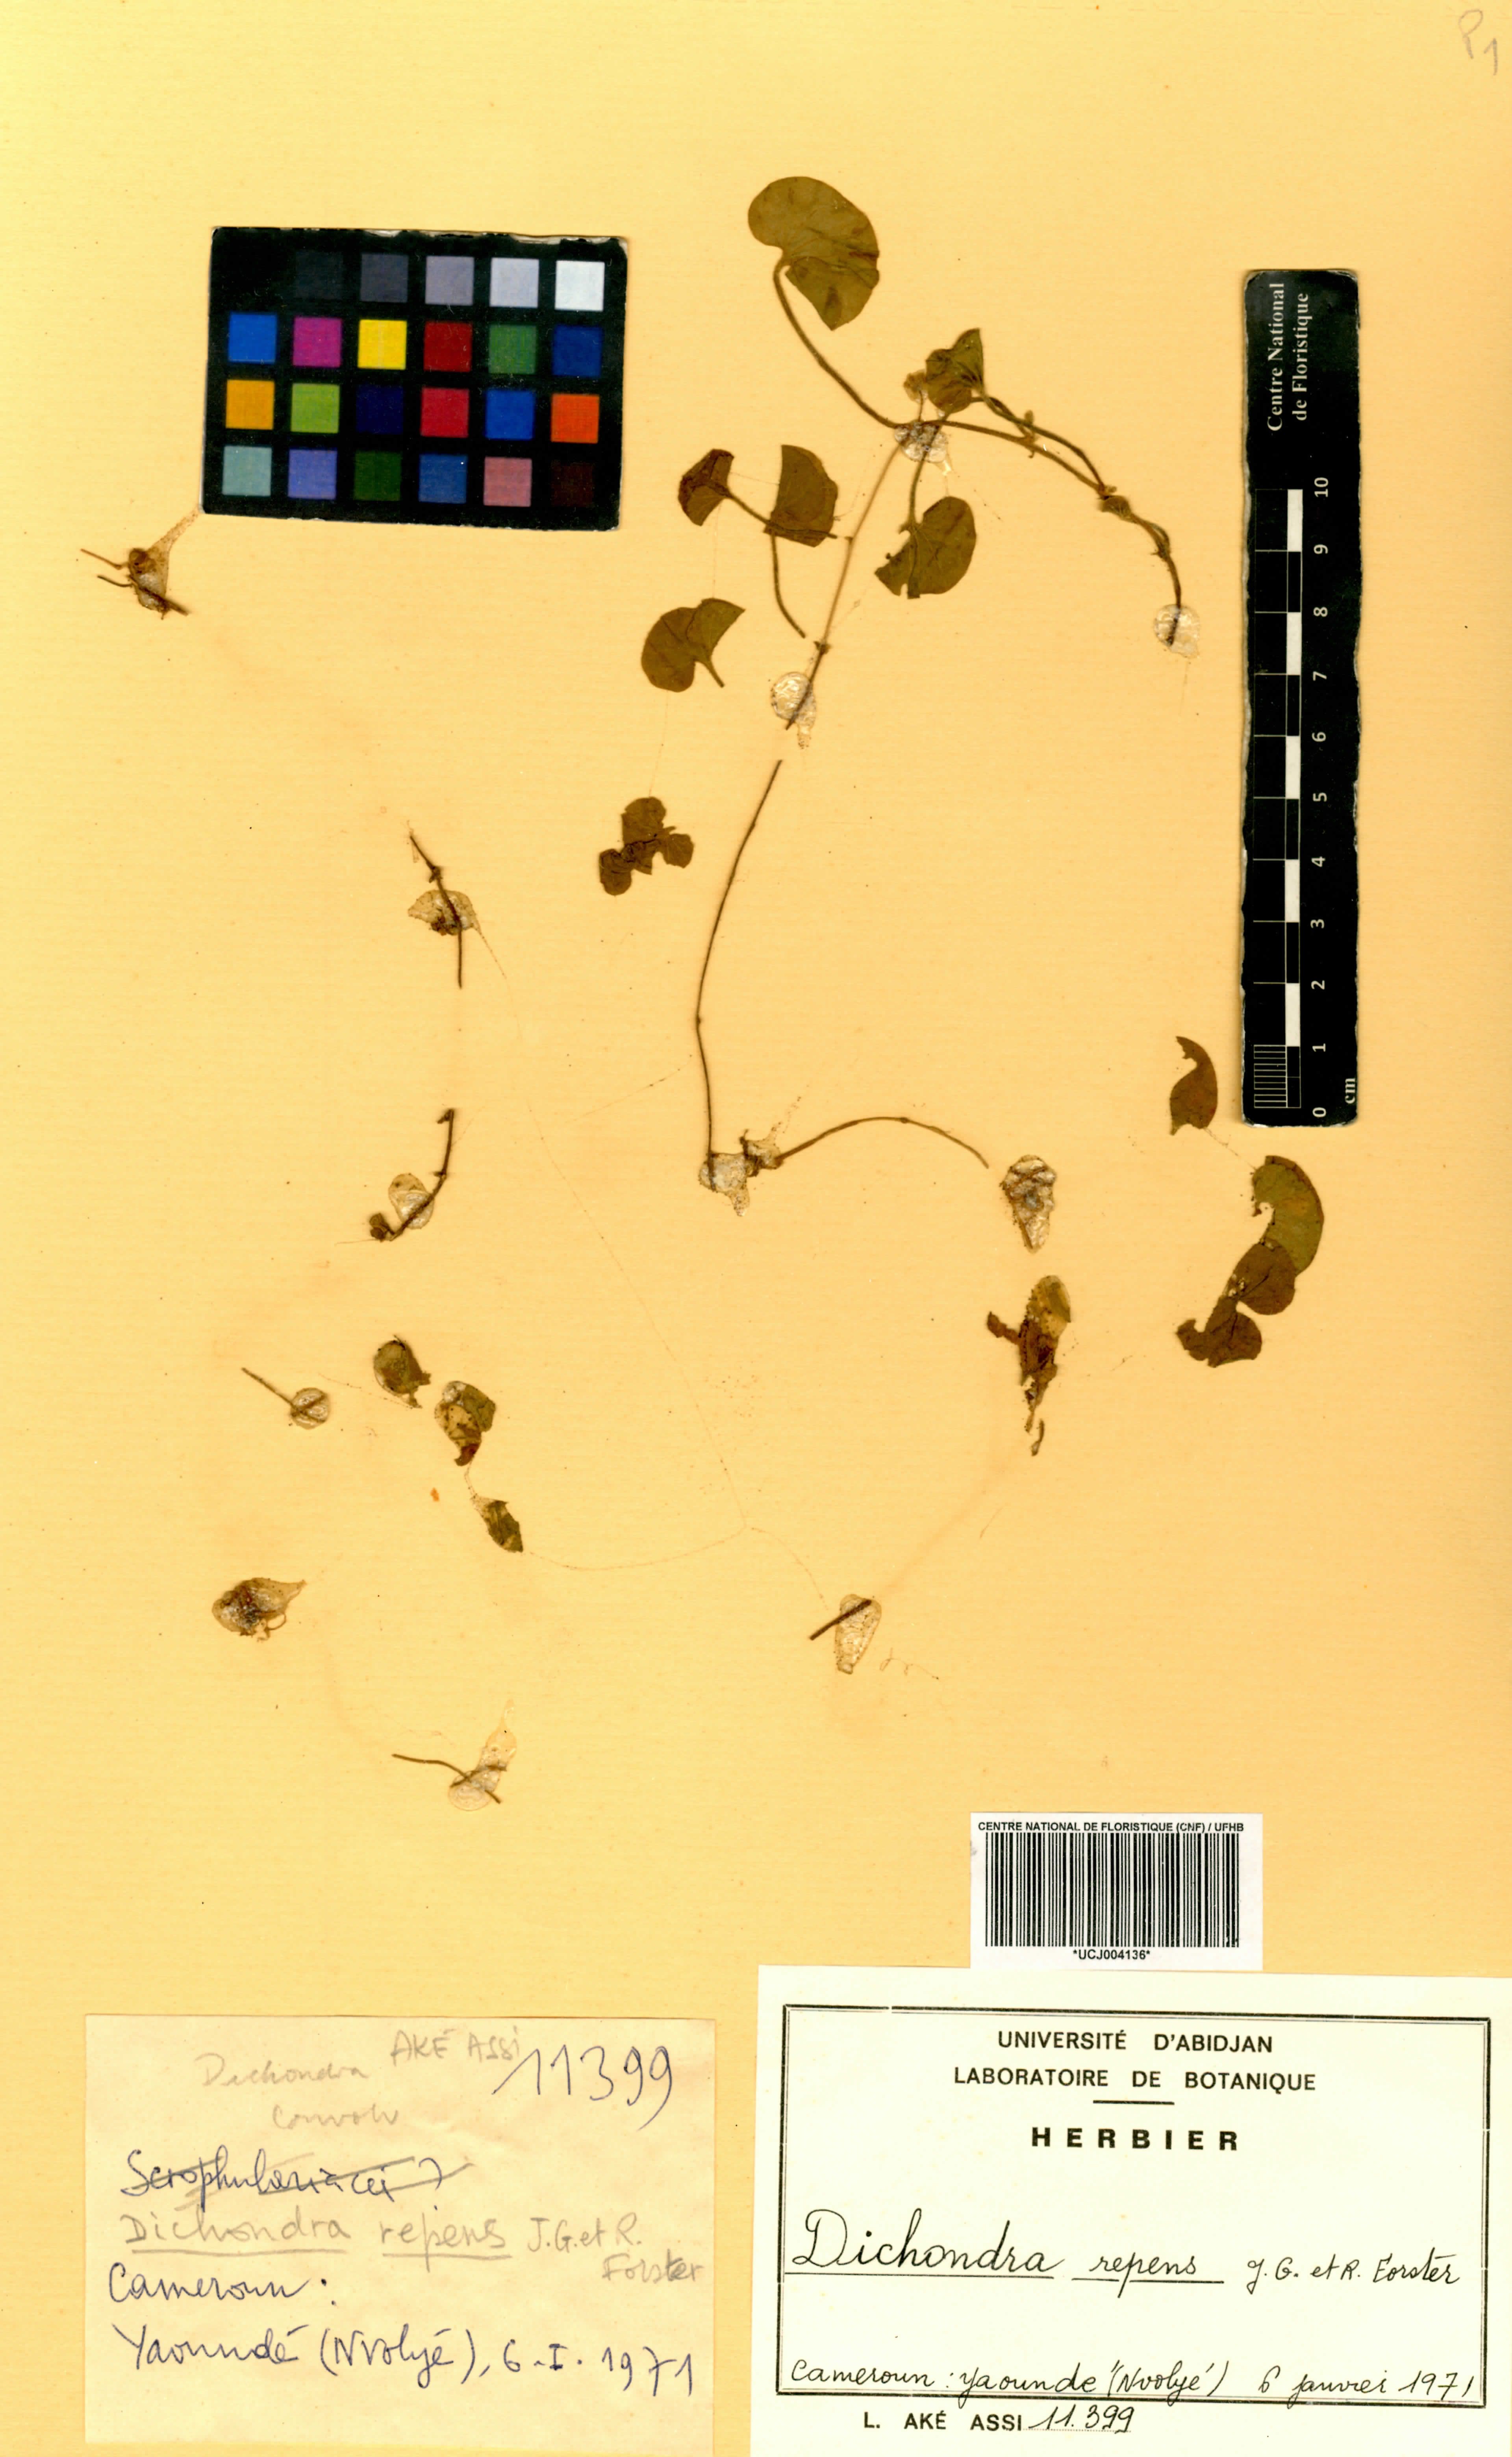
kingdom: Plantae
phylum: Tracheophyta
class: Magnoliopsida
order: Solanales
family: Convolvulaceae
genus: Dichondra
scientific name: Dichondra repens
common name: Kidneyweed
